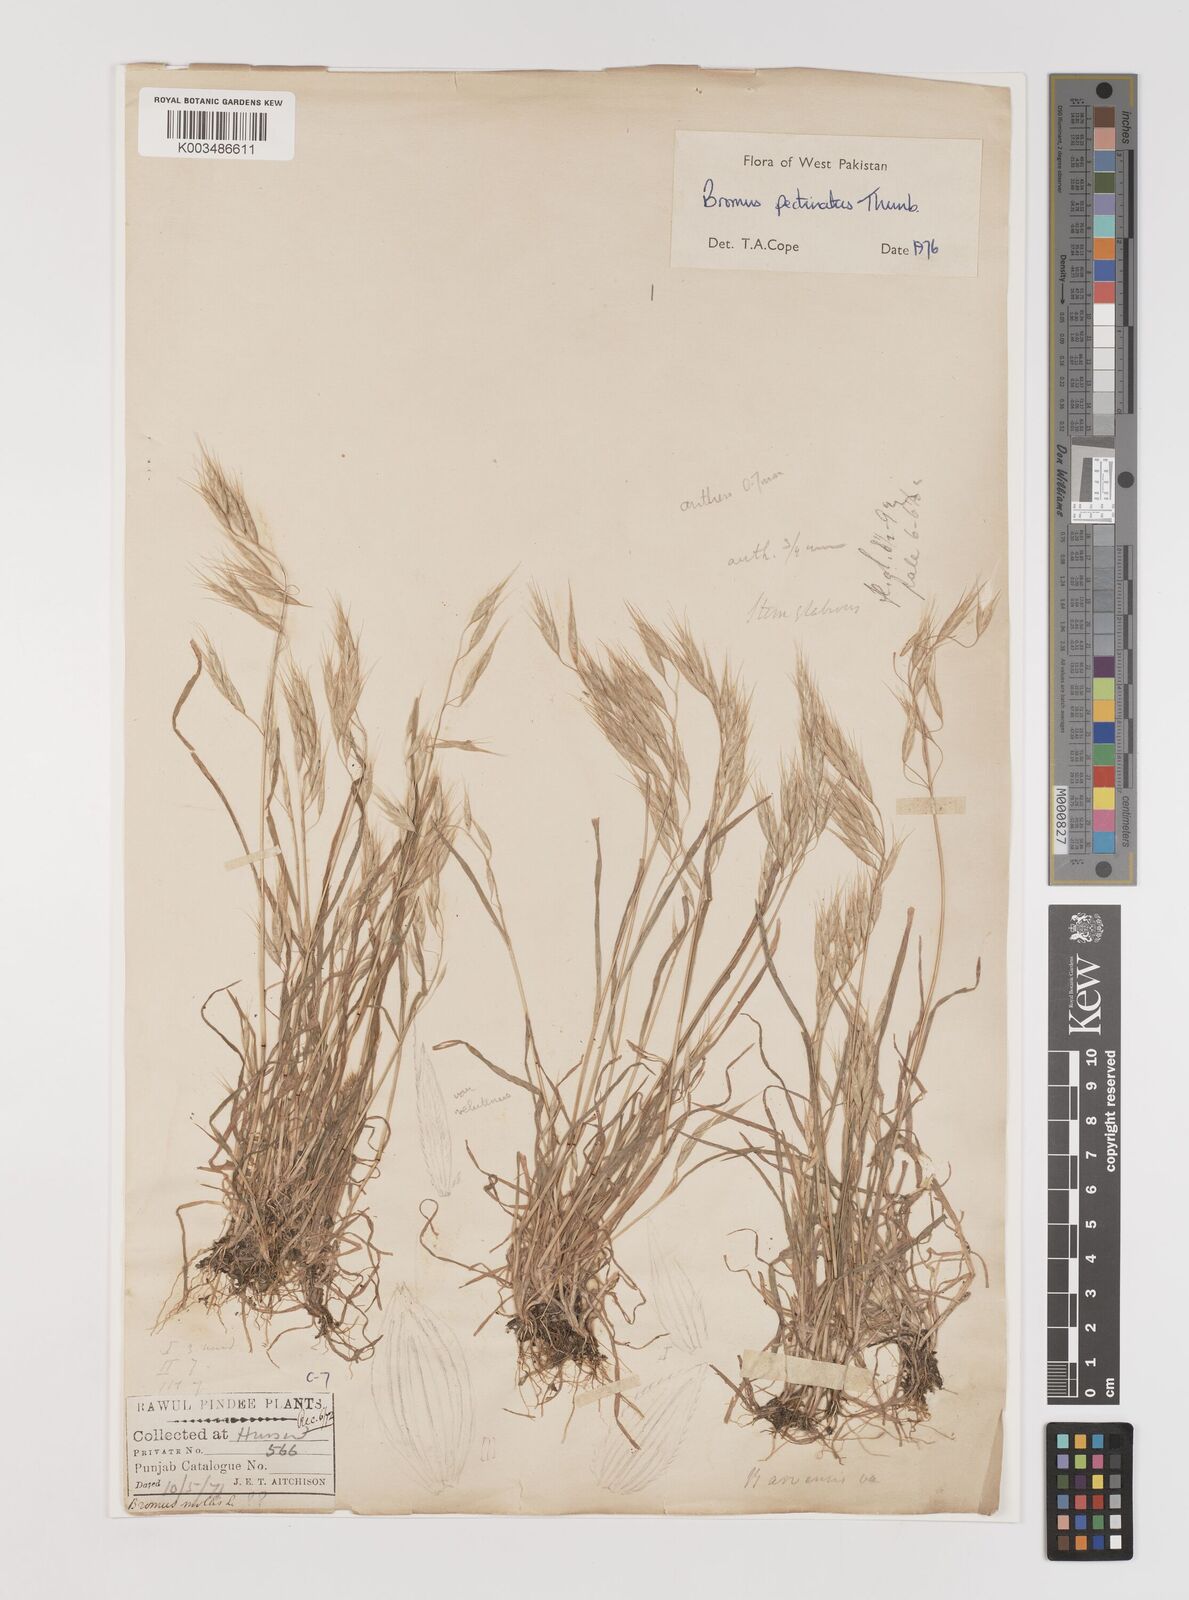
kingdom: Plantae
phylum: Tracheophyta
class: Liliopsida
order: Poales
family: Poaceae
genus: Bromus
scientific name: Bromus pectinatus
